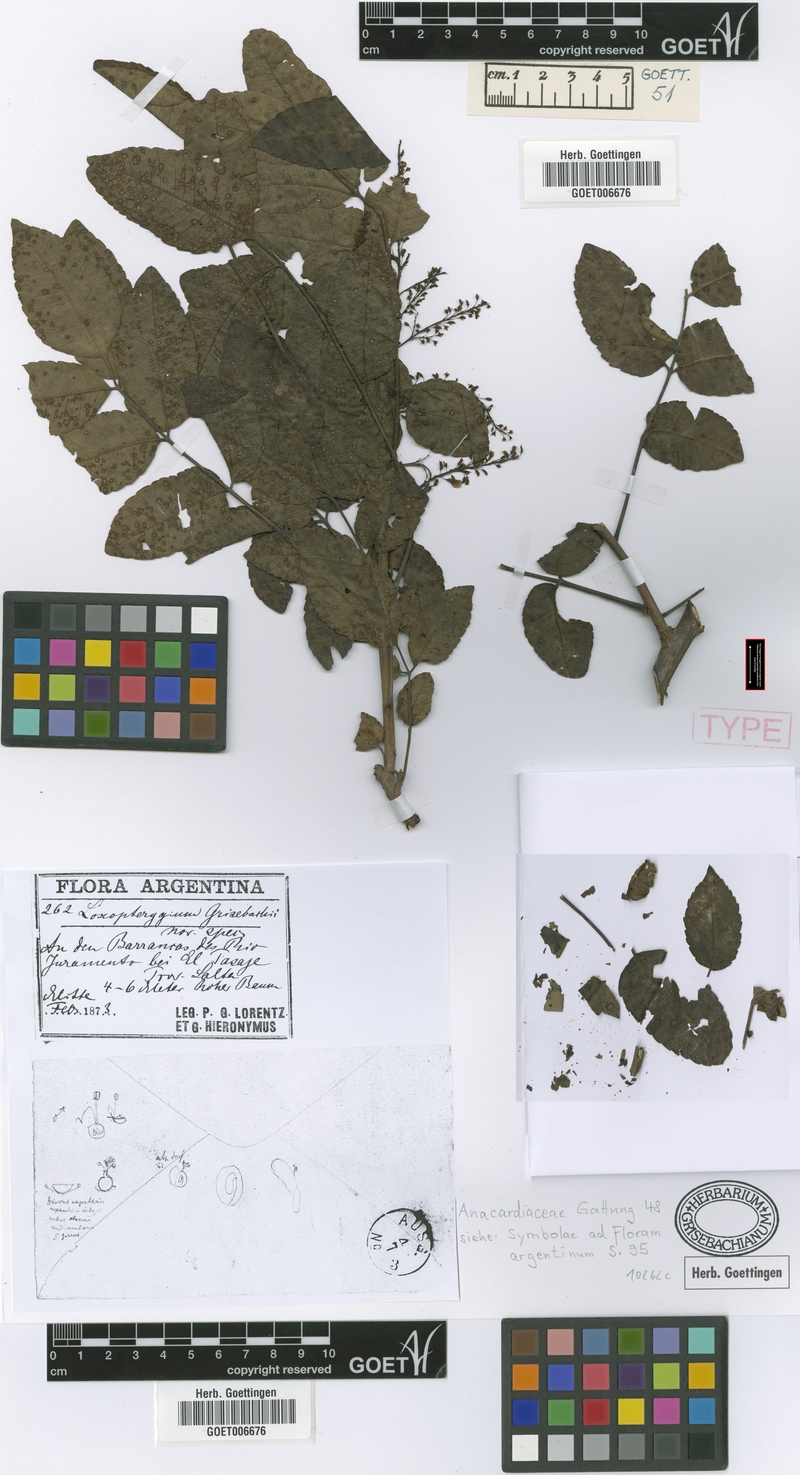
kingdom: Plantae
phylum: Tracheophyta
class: Magnoliopsida
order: Sapindales
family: Anacardiaceae
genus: Loxopterygium
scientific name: Loxopterygium
